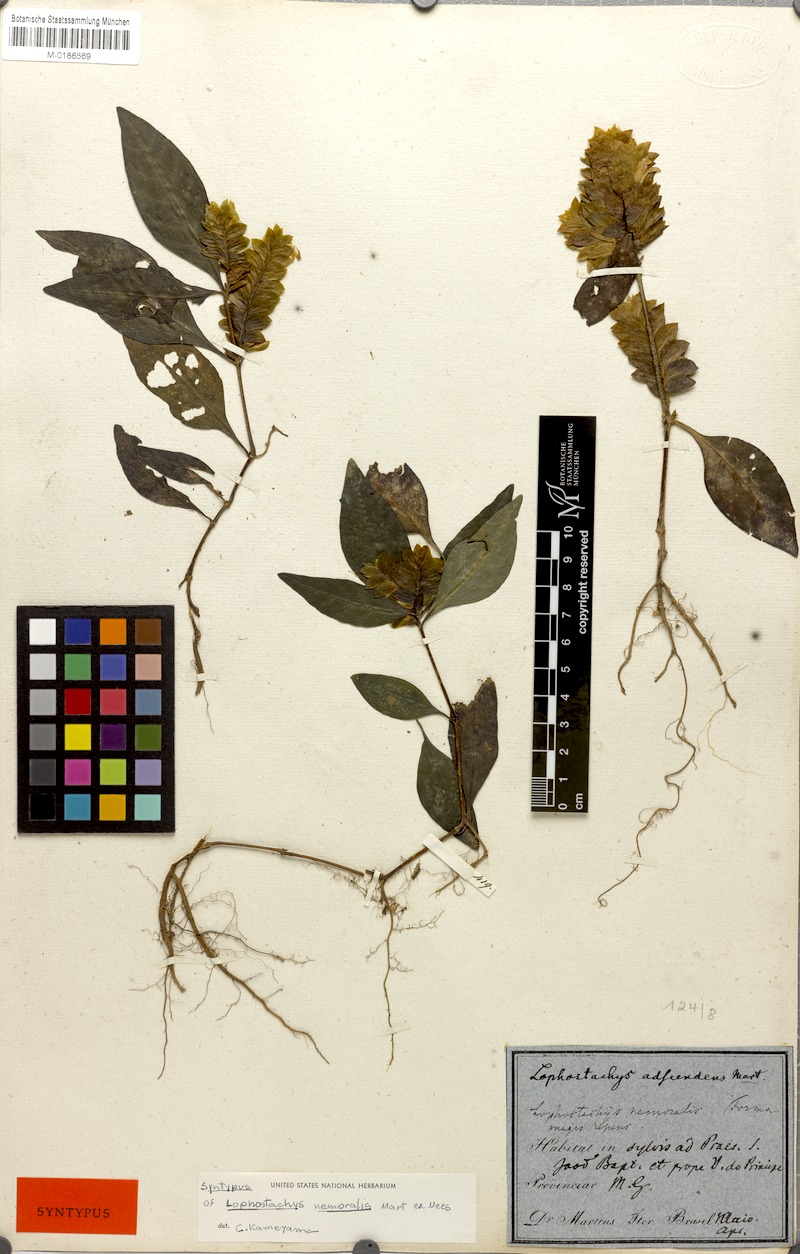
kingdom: Plantae
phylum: Tracheophyta
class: Magnoliopsida
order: Lamiales
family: Acanthaceae
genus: Lepidagathis
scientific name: Lepidagathis nemoralis
